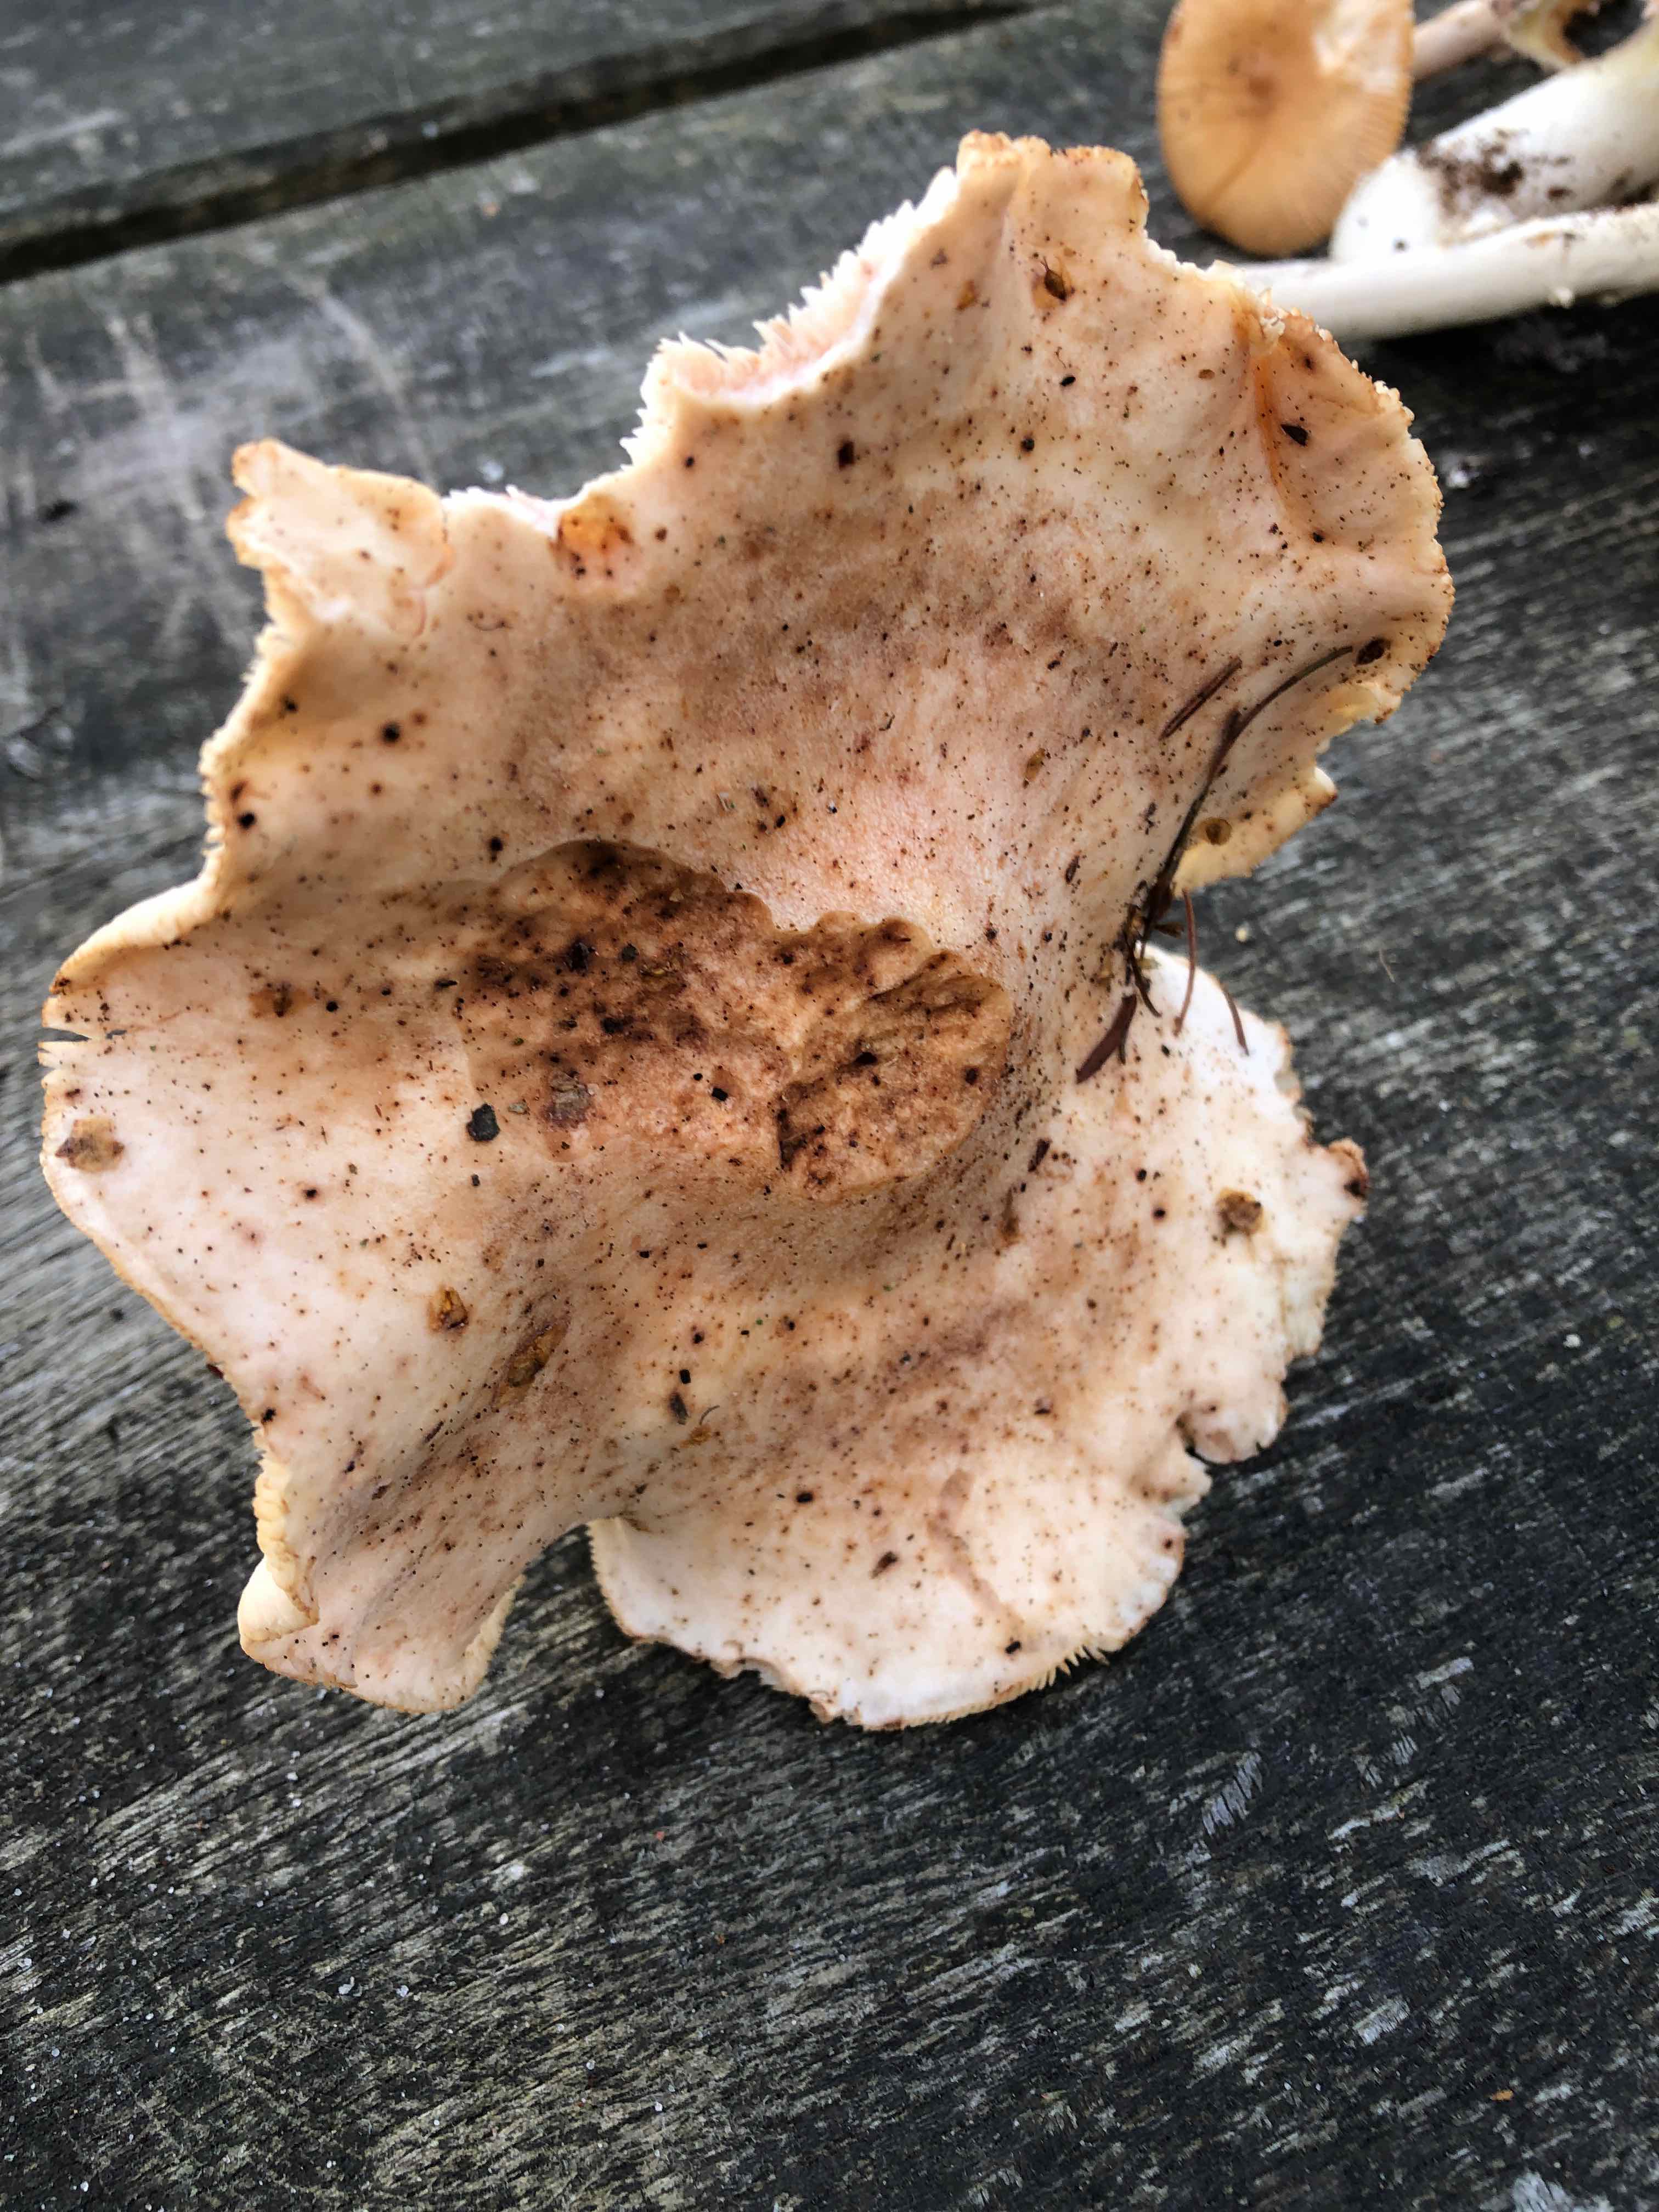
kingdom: Fungi
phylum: Basidiomycota
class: Agaricomycetes
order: Agaricales
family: Omphalotaceae
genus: Rhodocollybia
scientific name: Rhodocollybia maculata
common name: plettet fladhat
